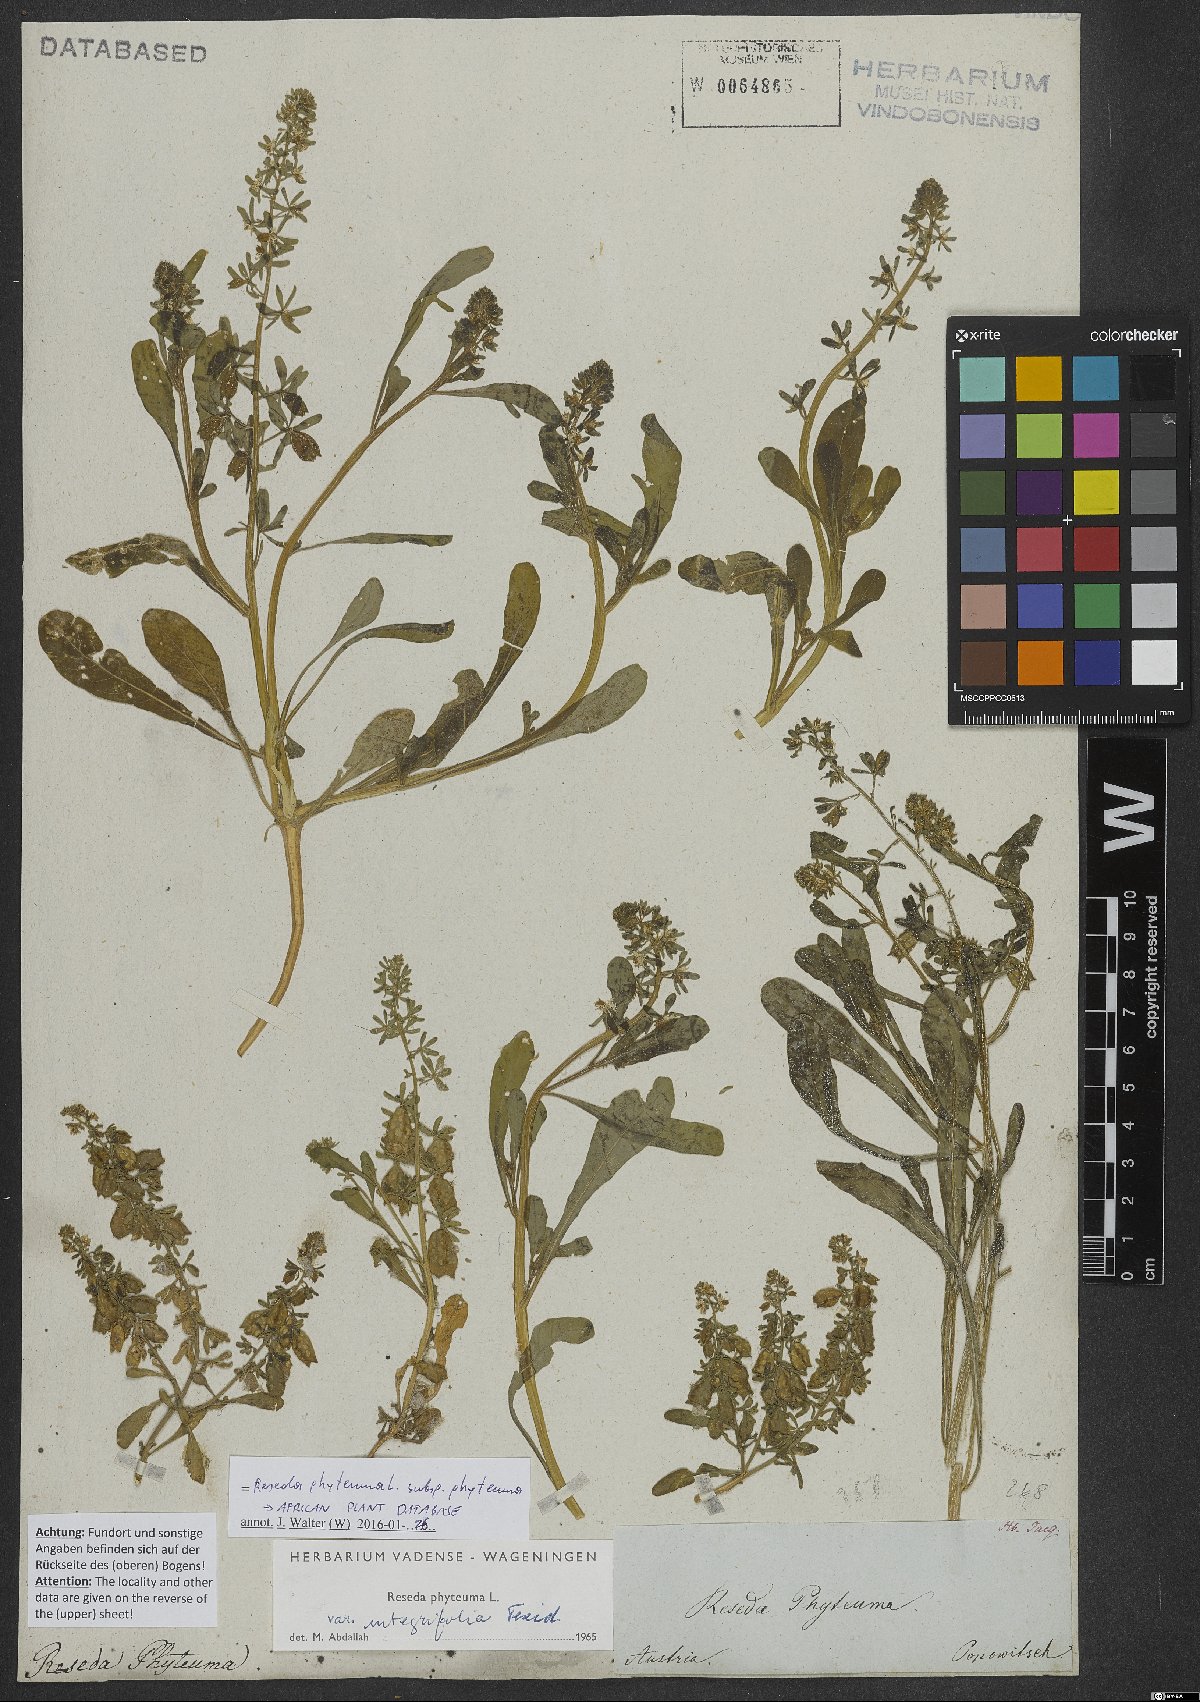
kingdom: Plantae
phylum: Tracheophyta
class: Magnoliopsida
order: Brassicales
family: Resedaceae
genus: Reseda
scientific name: Reseda phyteuma
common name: Corn mignonette
